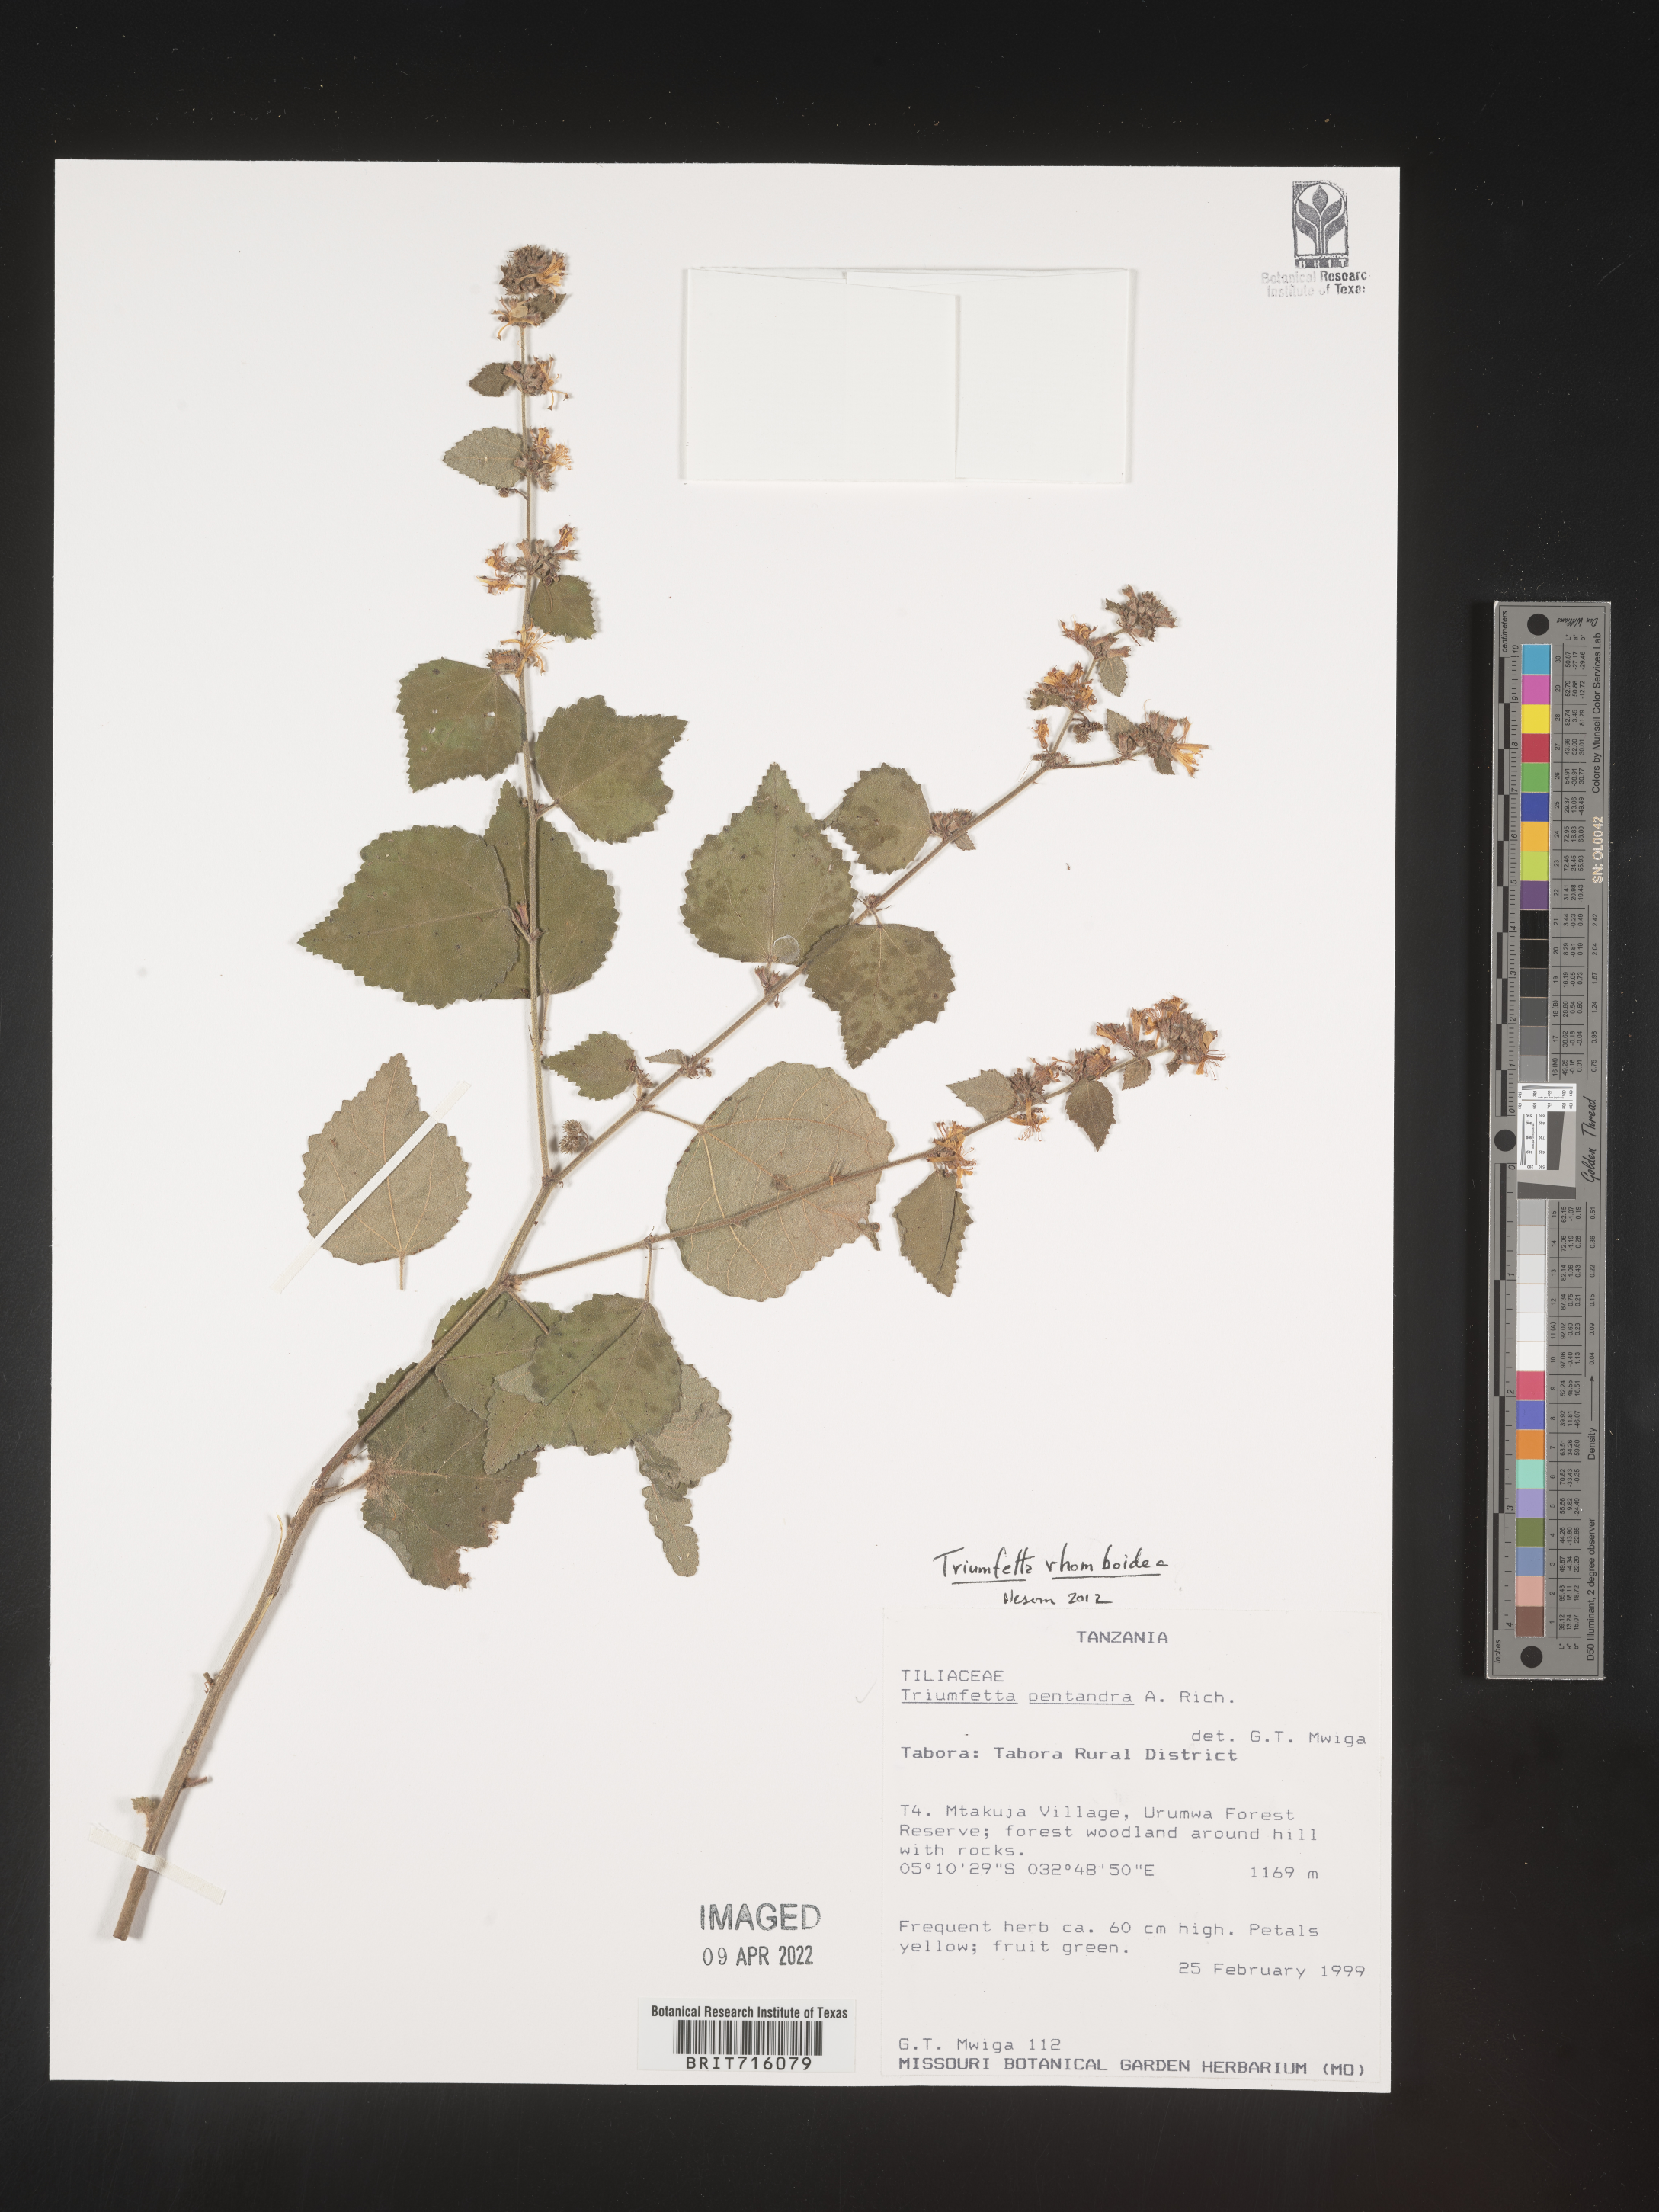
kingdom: Plantae
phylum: Tracheophyta
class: Magnoliopsida
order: Malvales
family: Malvaceae
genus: Triumfetta
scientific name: Triumfetta rhomboidea
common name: Diamond burbark
